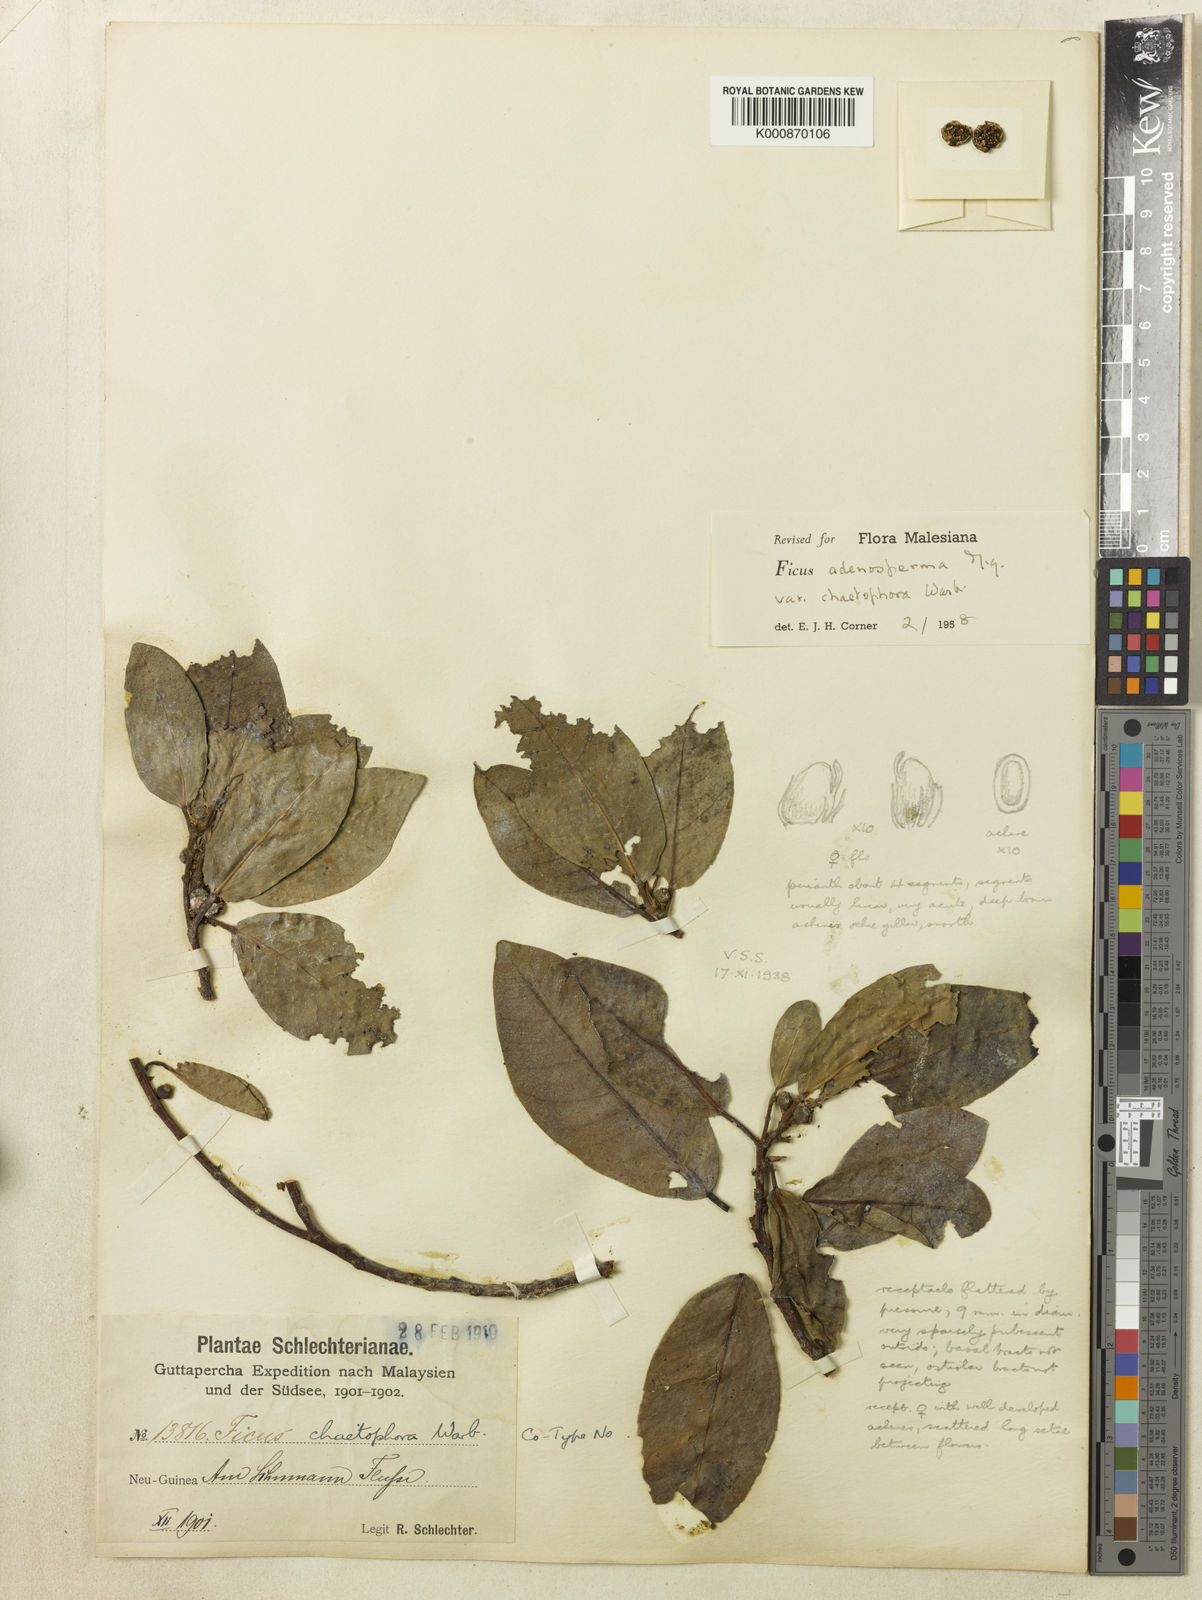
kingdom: Plantae
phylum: Tracheophyta
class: Magnoliopsida
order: Rosales
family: Moraceae
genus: Ficus
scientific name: Ficus adenosperma
